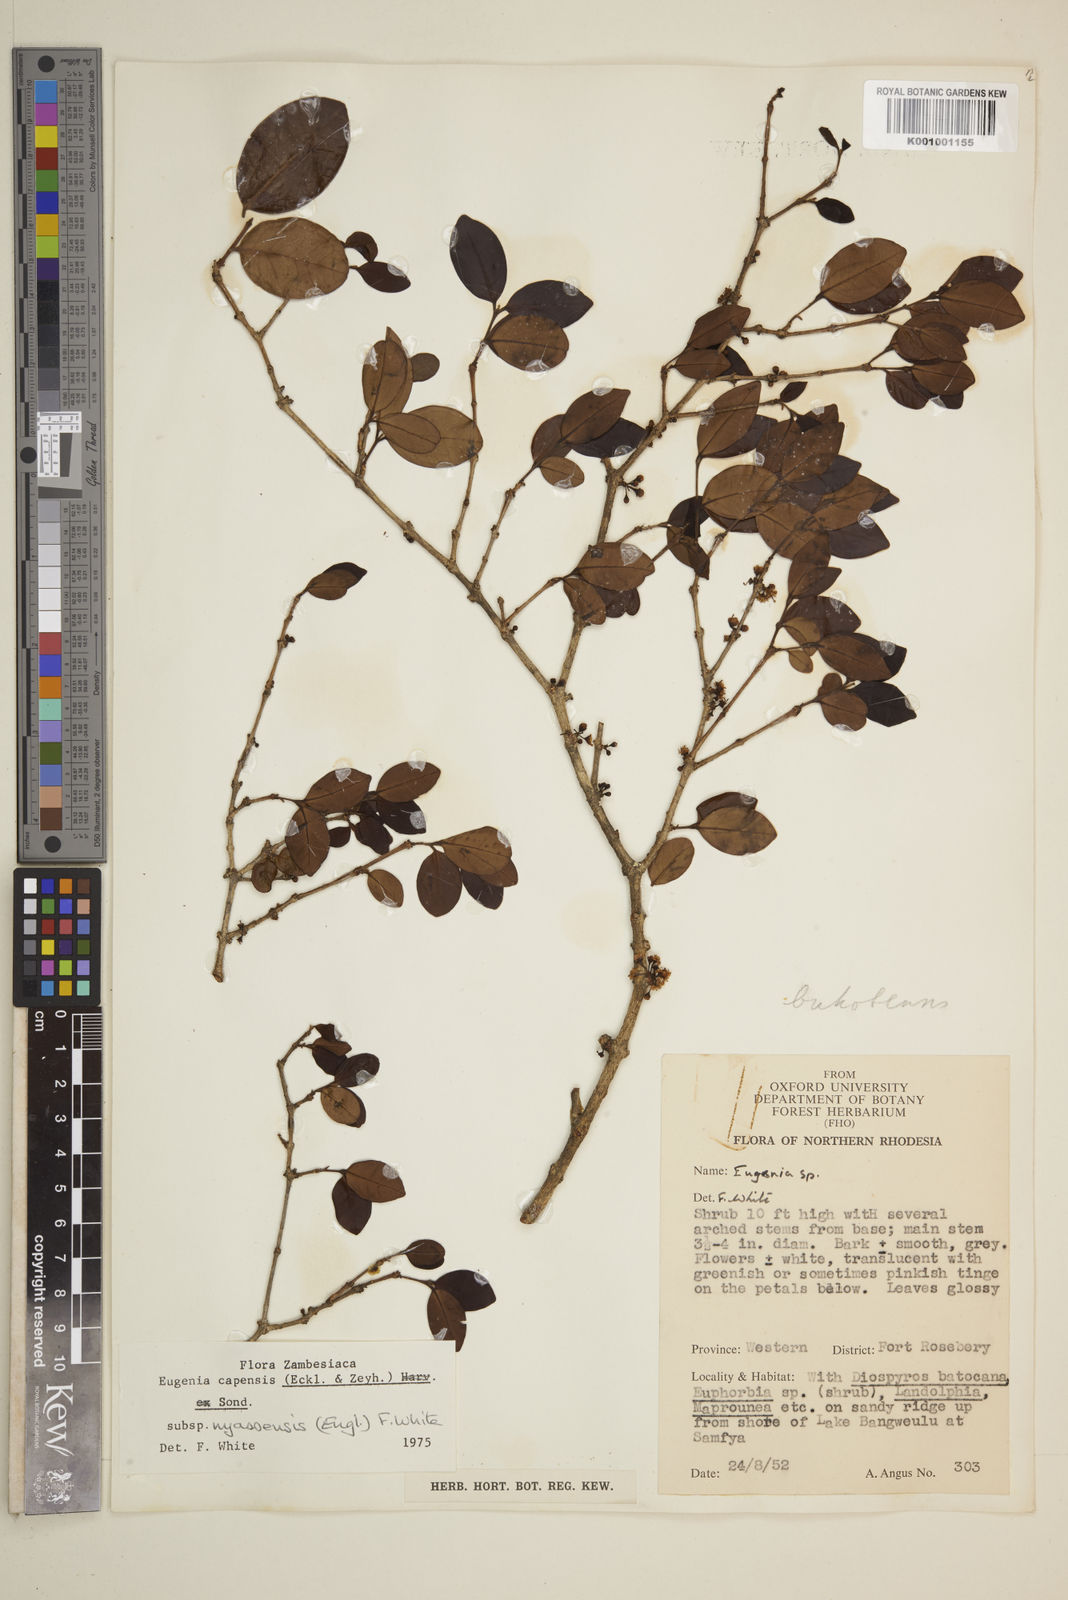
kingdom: Plantae
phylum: Tracheophyta
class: Magnoliopsida
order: Myrtales
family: Myrtaceae
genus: Eugenia
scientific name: Eugenia capensis
